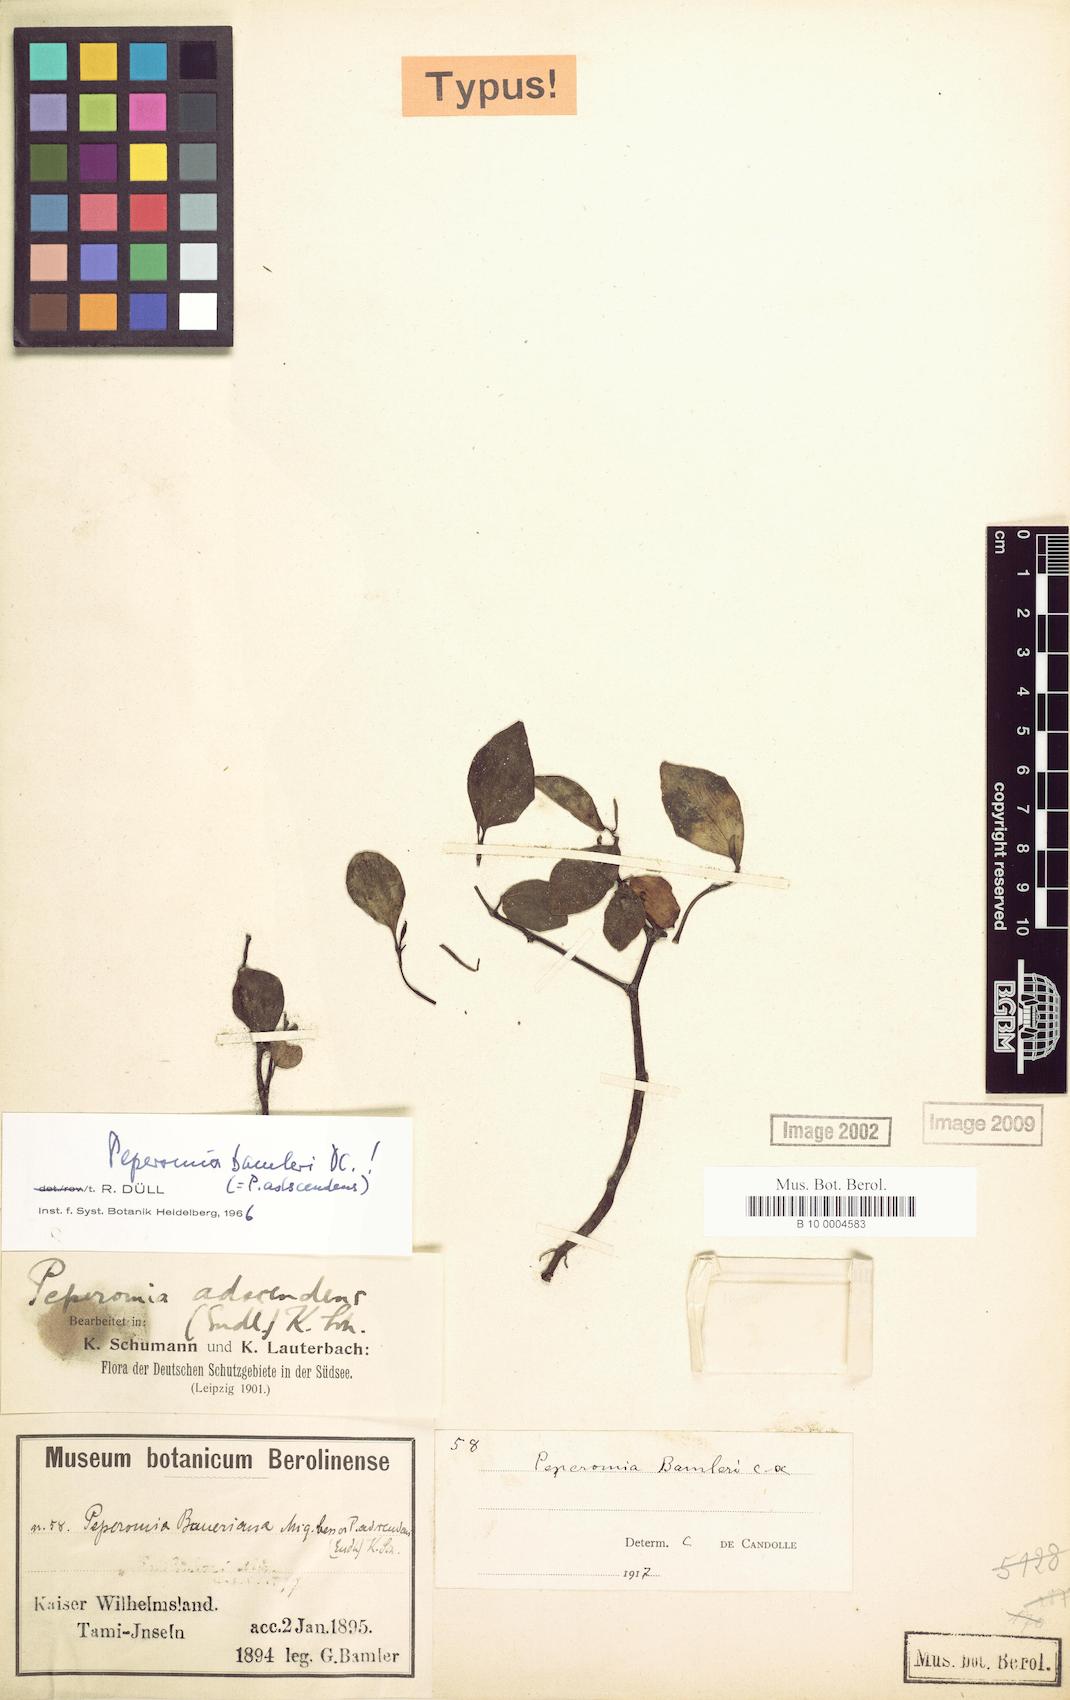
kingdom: Plantae
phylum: Tracheophyta
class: Magnoliopsida
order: Piperales
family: Piperaceae
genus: Peperomia
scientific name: Peperomia bamleri
